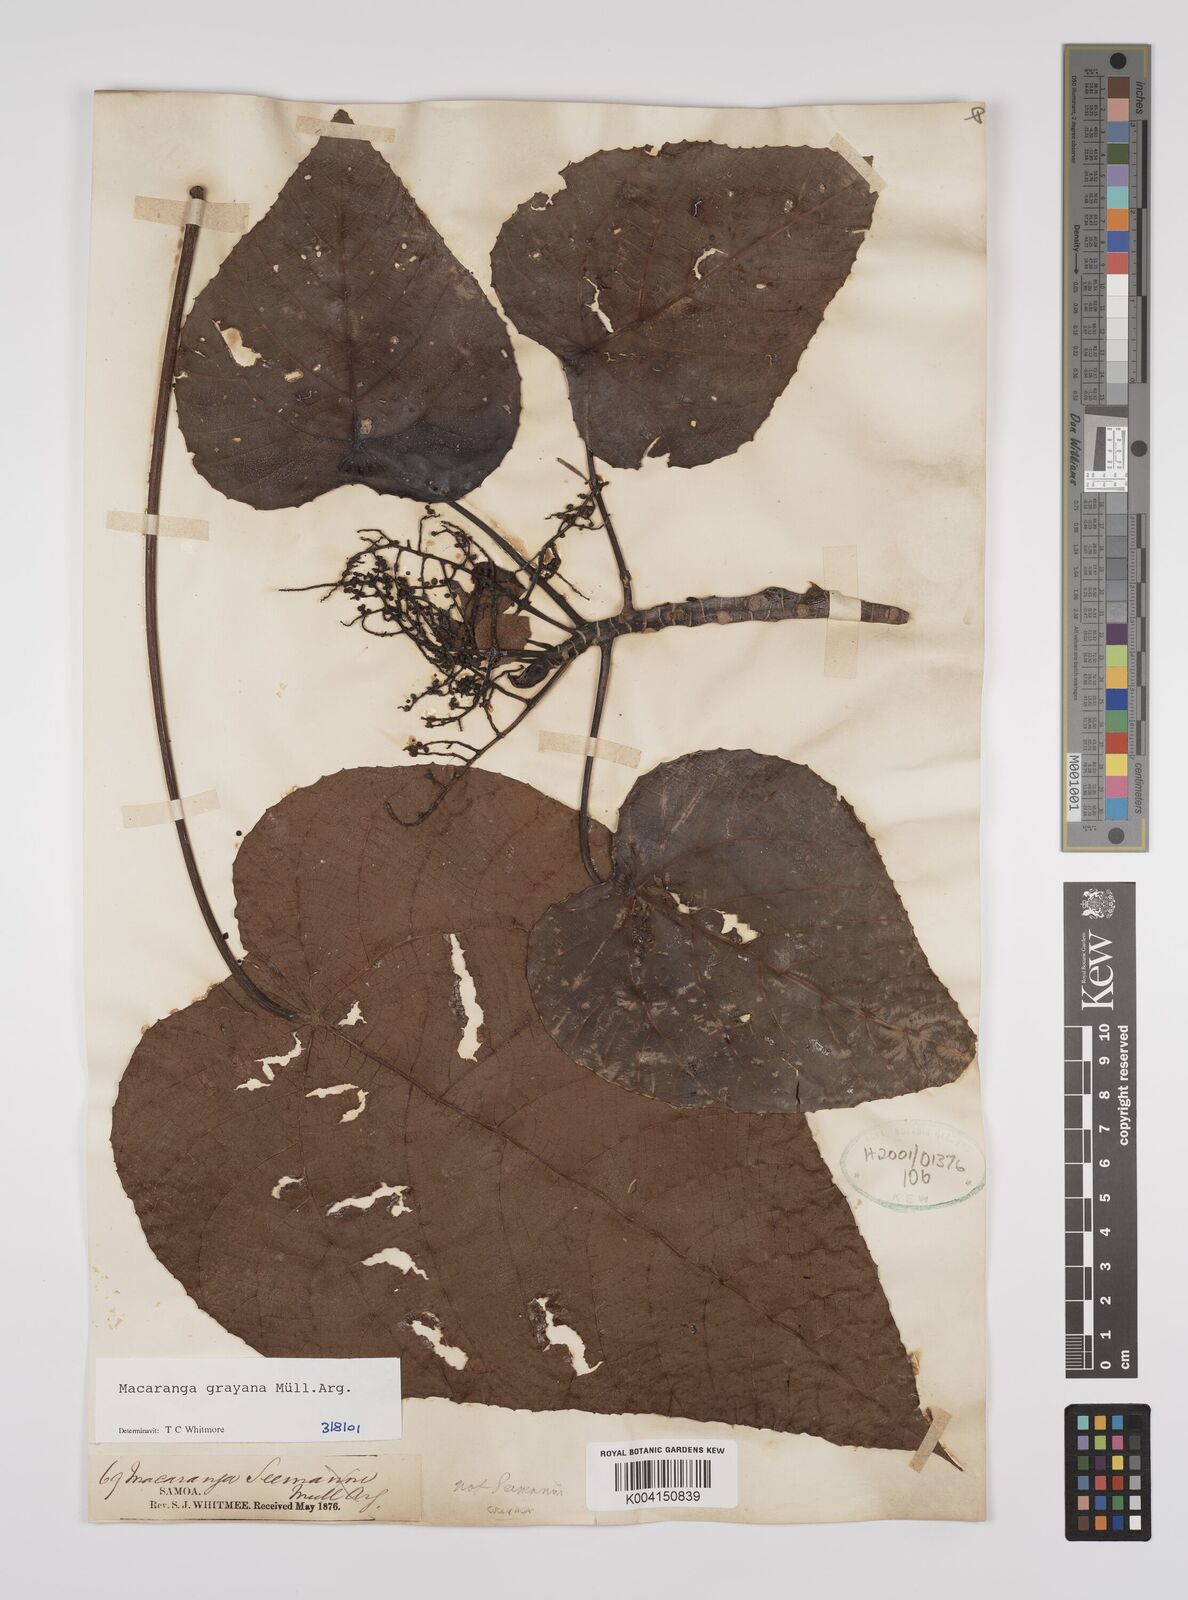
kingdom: Plantae
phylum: Tracheophyta
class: Magnoliopsida
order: Malpighiales
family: Euphorbiaceae
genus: Macaranga
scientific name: Macaranga grayana
